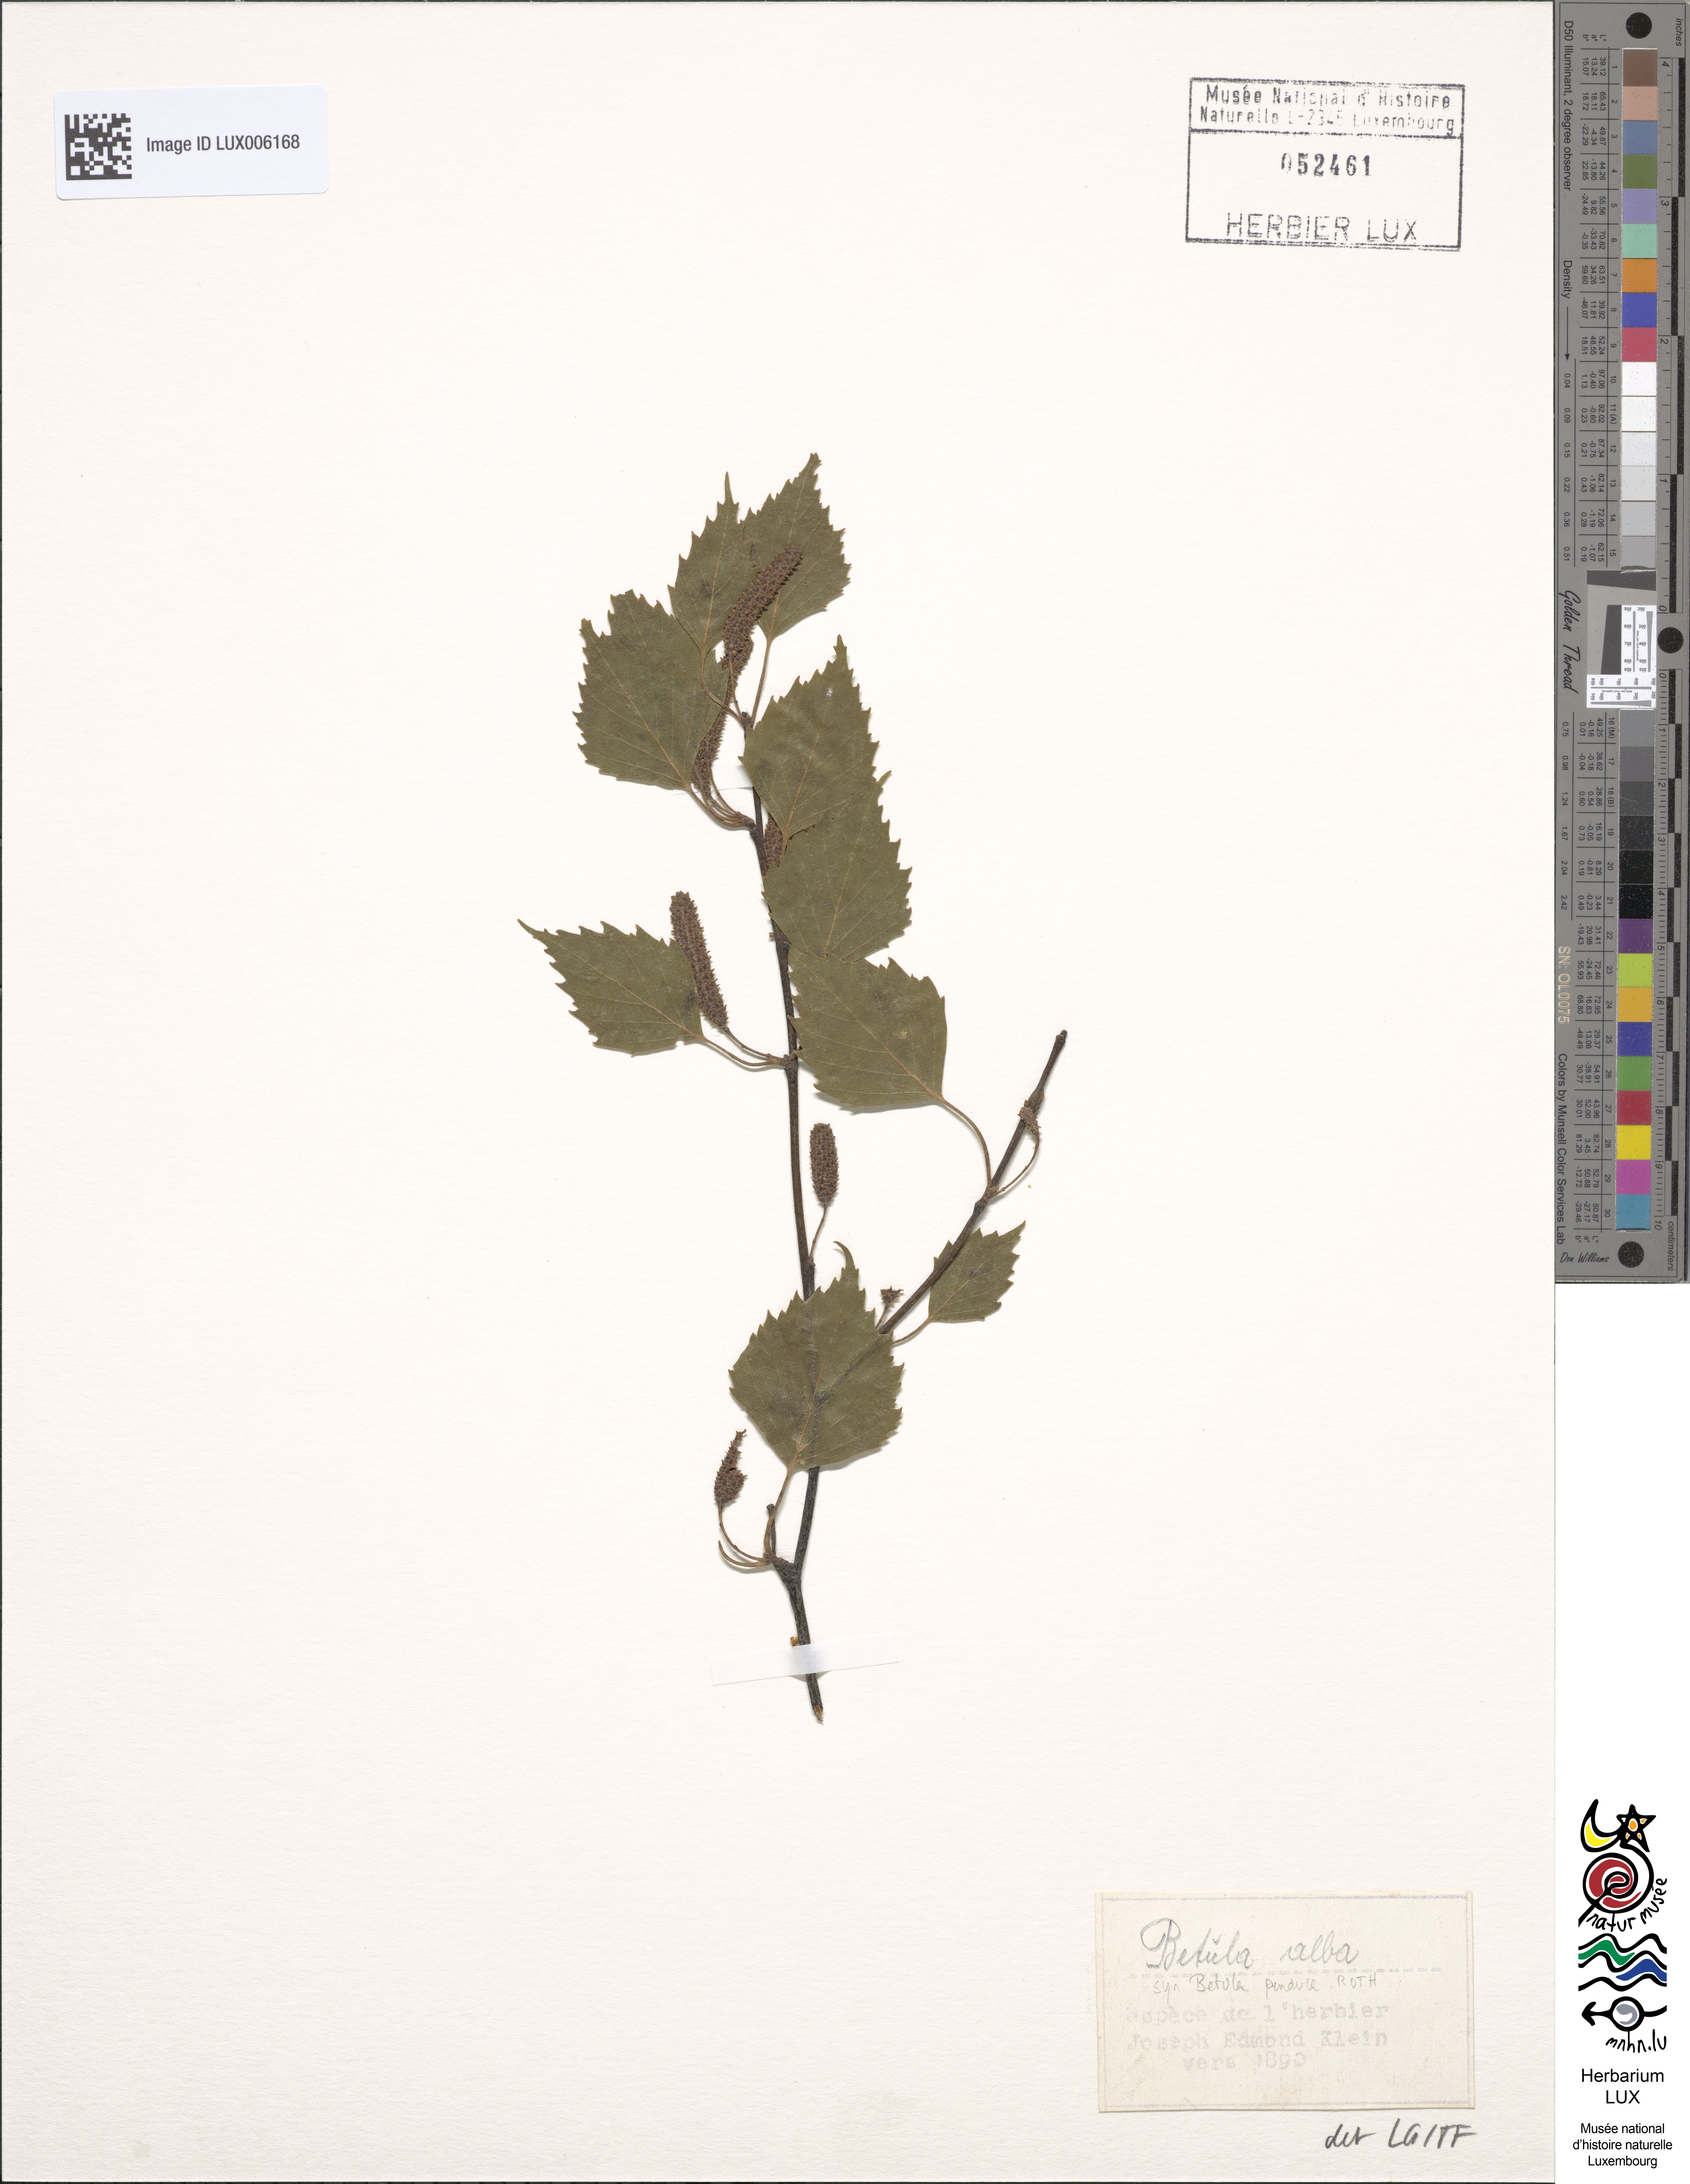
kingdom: Plantae
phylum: Tracheophyta
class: Magnoliopsida
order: Fagales
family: Betulaceae
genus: Betula
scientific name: Betula pendula
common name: Silver birch
